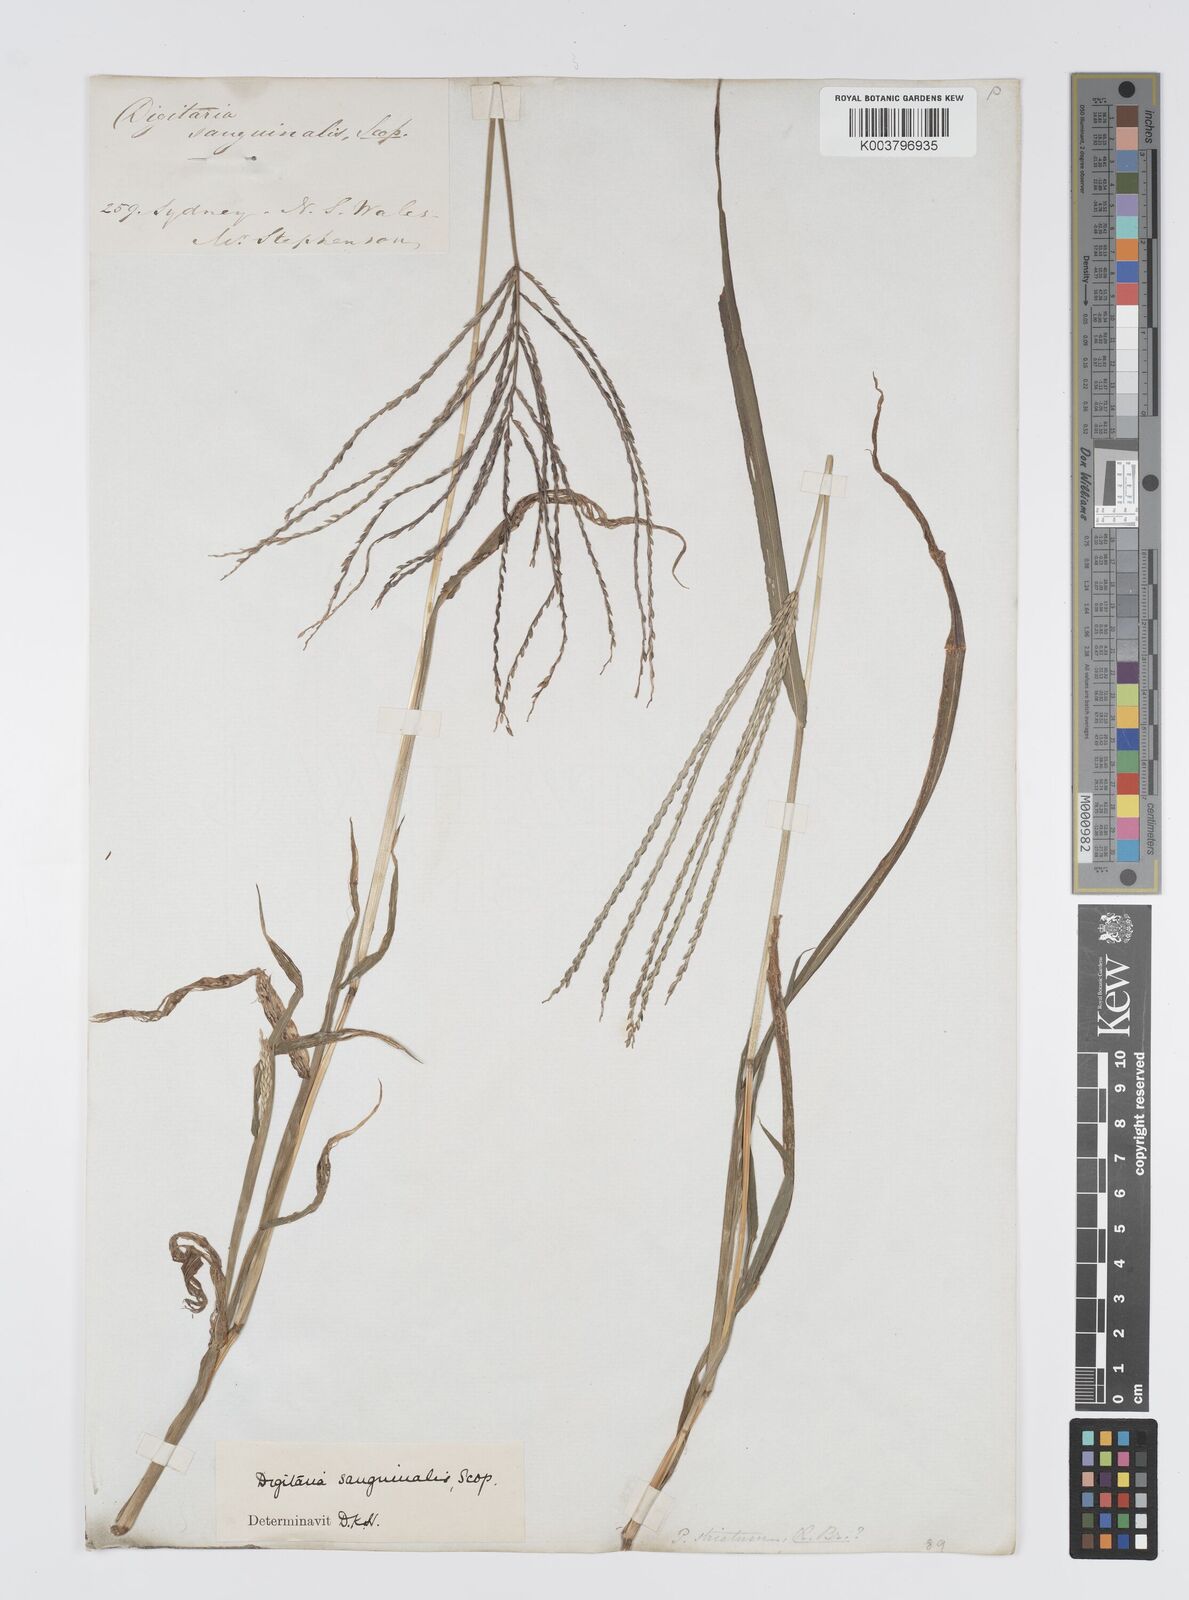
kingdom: Plantae
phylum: Tracheophyta
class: Liliopsida
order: Poales
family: Poaceae
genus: Digitaria
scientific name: Digitaria sanguinalis
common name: Hairy crabgrass
